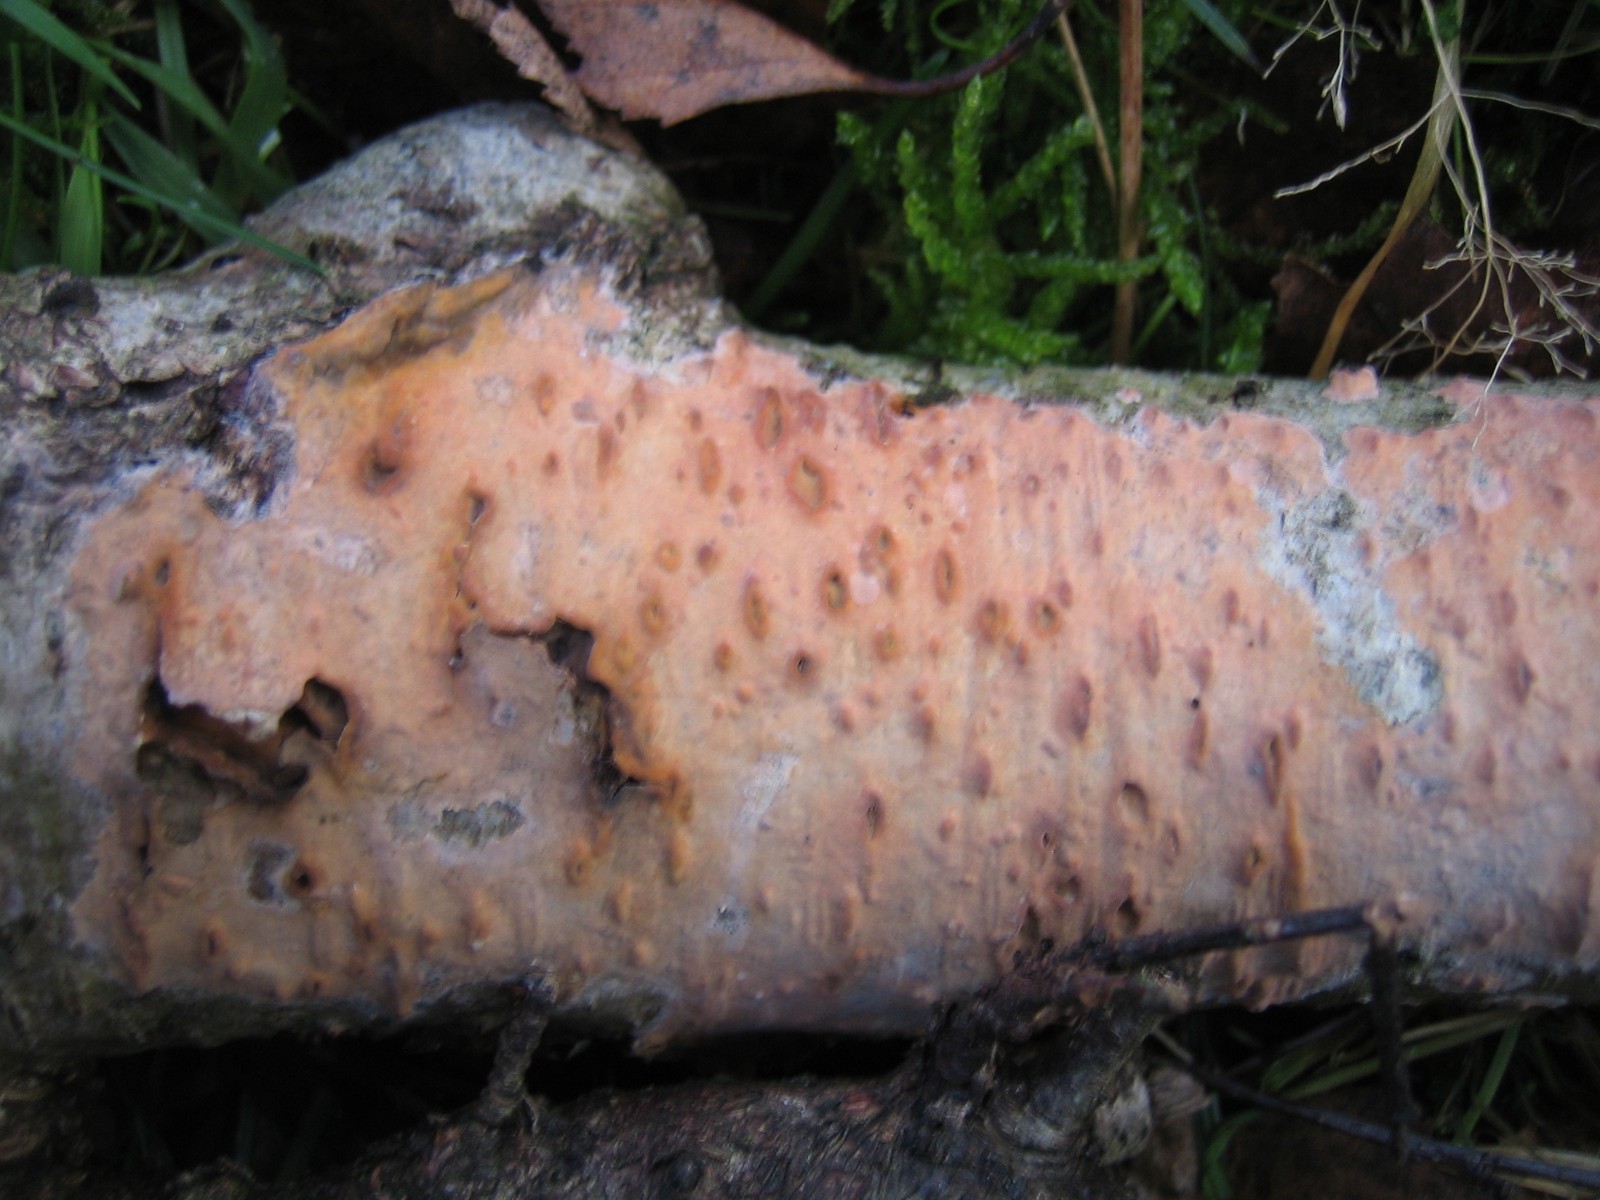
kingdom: Fungi
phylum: Basidiomycota
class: Agaricomycetes
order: Russulales
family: Peniophoraceae
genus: Peniophora
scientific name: Peniophora incarnata
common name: laksefarvet voksskind
